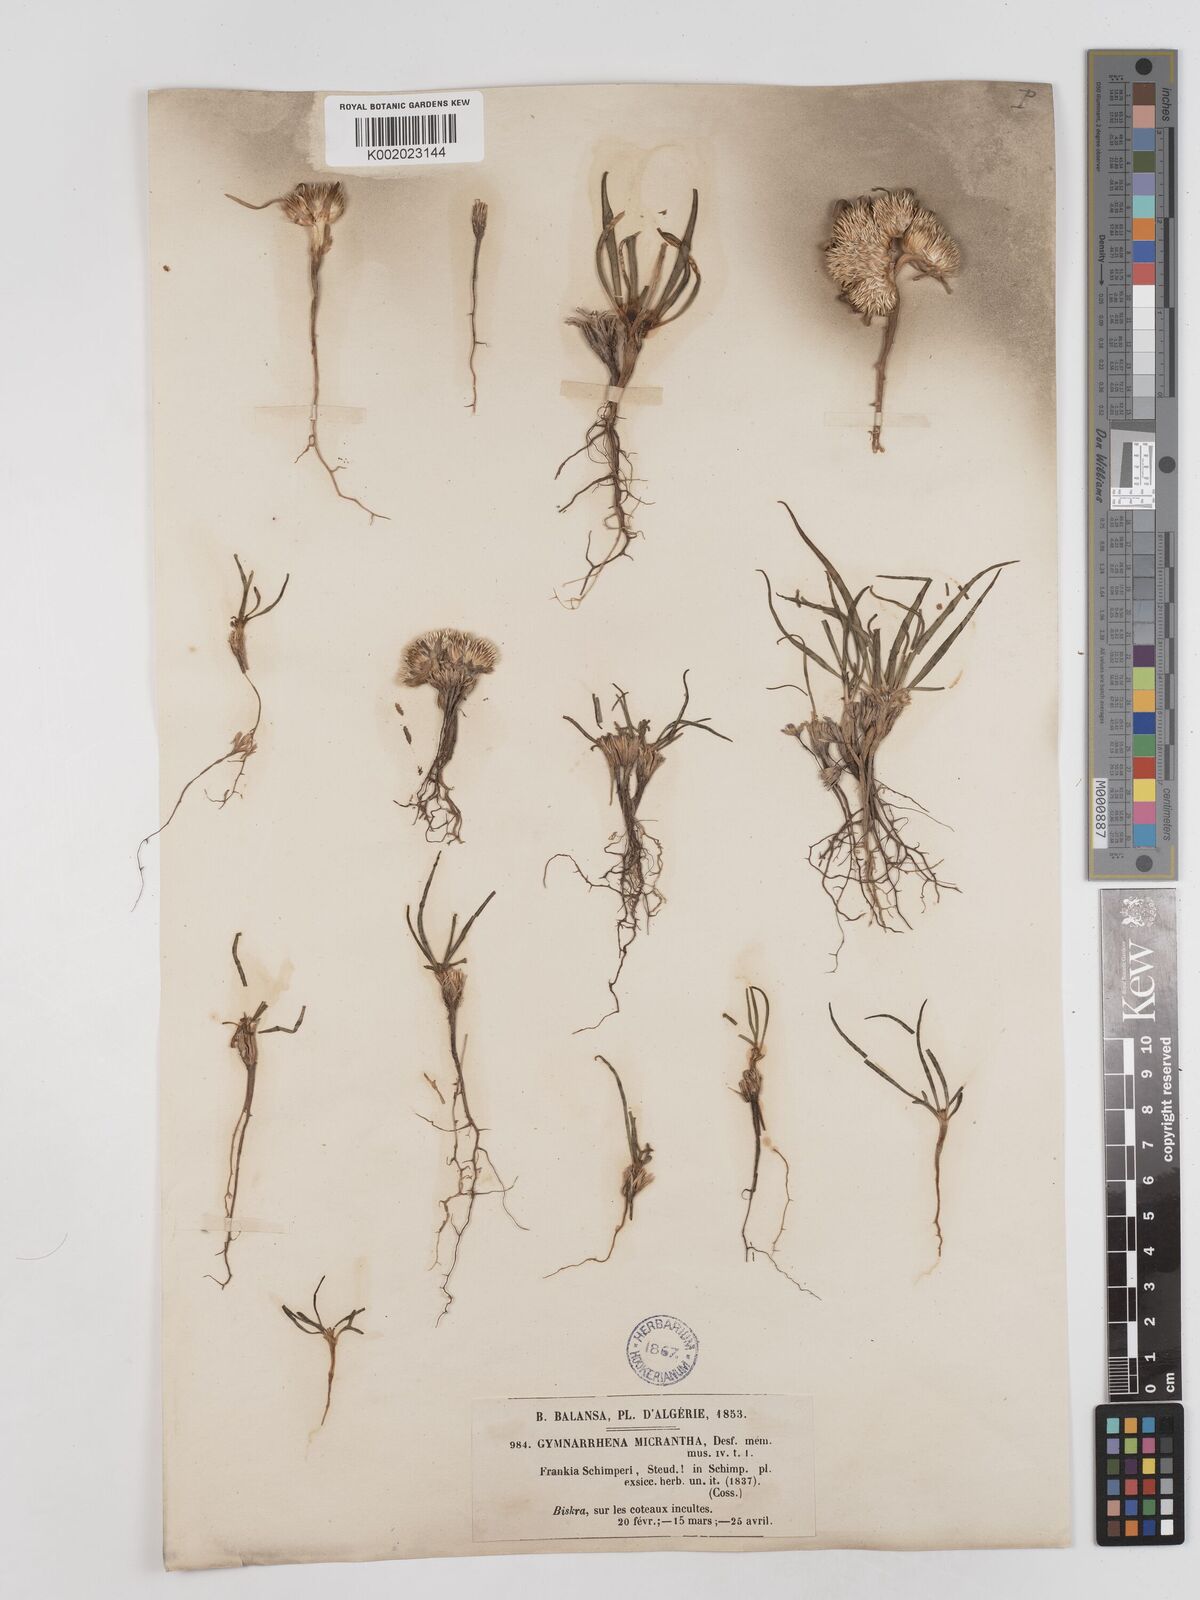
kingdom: Plantae
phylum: Tracheophyta
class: Magnoliopsida
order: Asterales
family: Asteraceae
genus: Gymnarrhena
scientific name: Gymnarrhena micrantha
